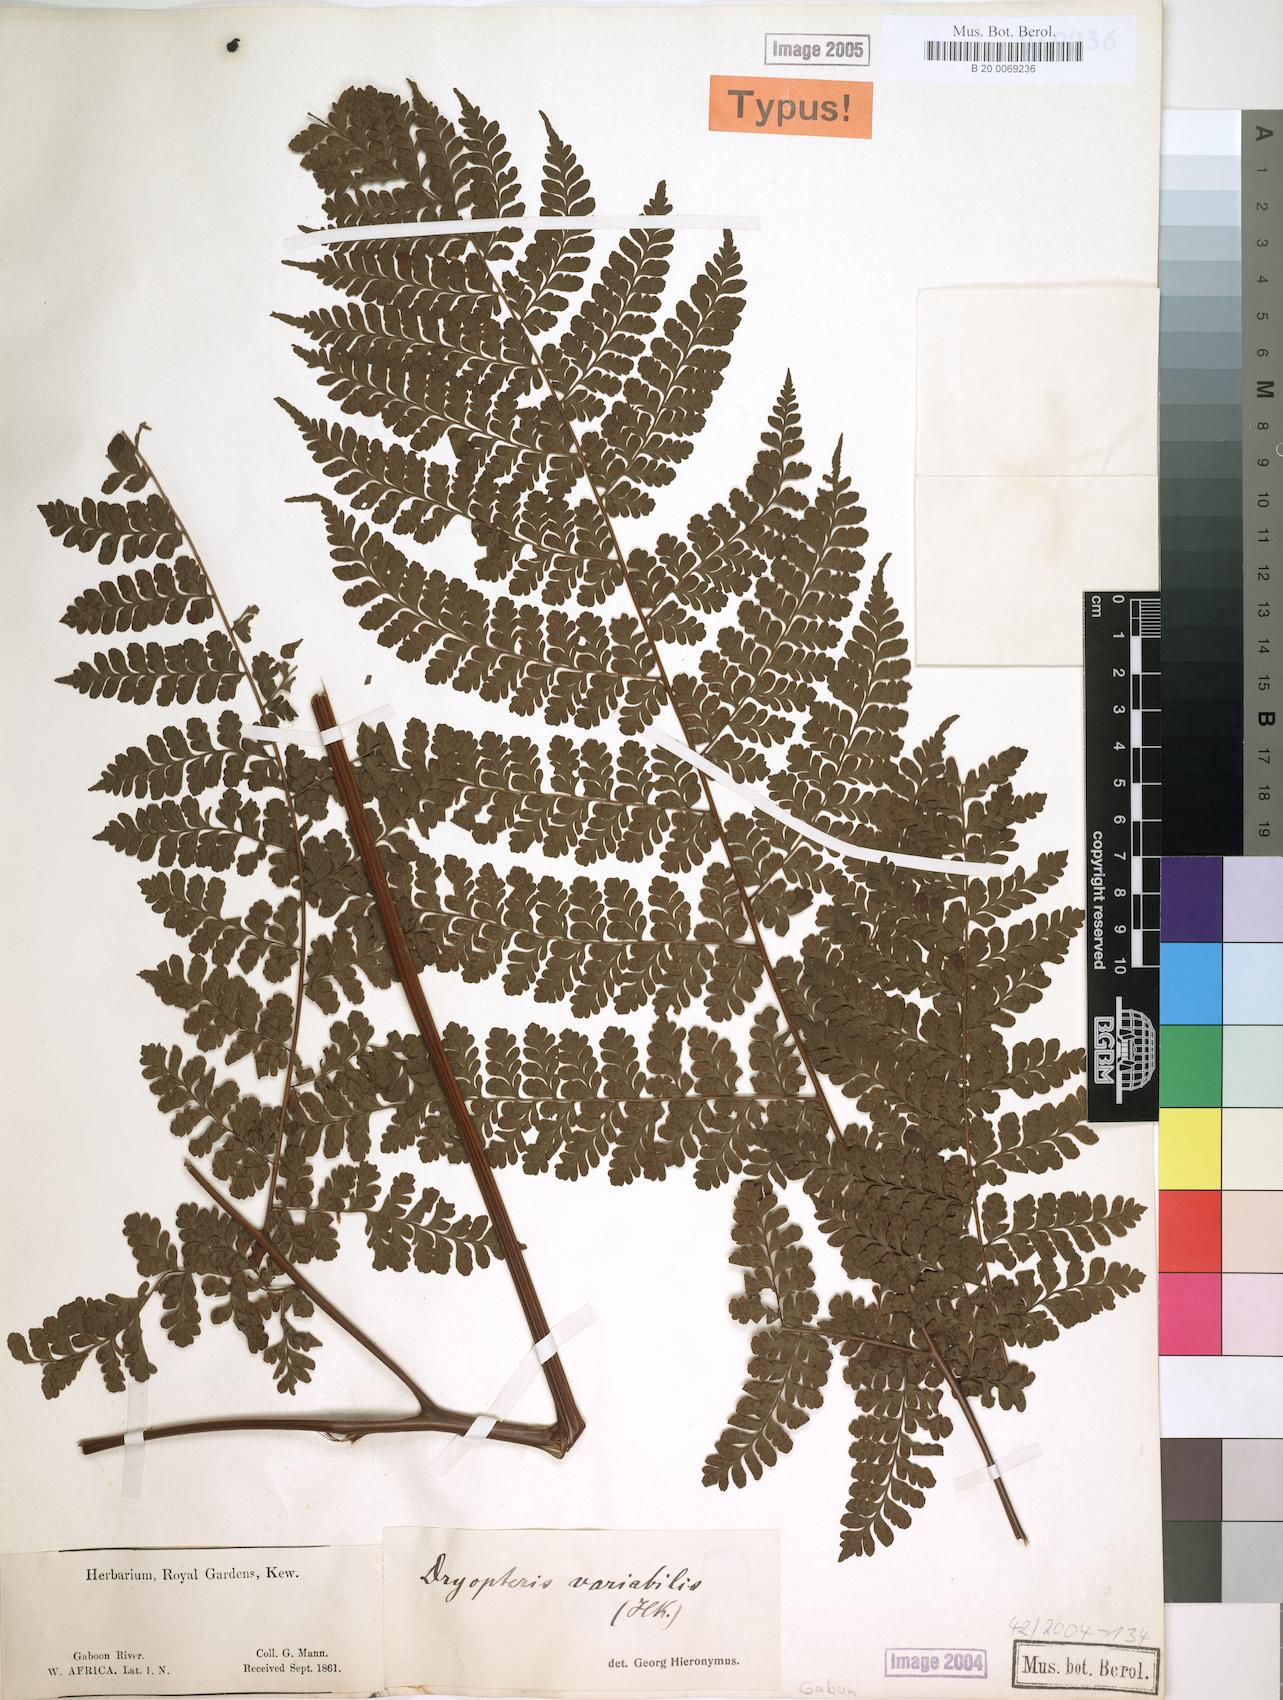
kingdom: Plantae
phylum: Tracheophyta
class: Polypodiopsida
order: Polypodiales
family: Tectariaceae
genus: Triplophyllum
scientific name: Triplophyllum pilosissimum
